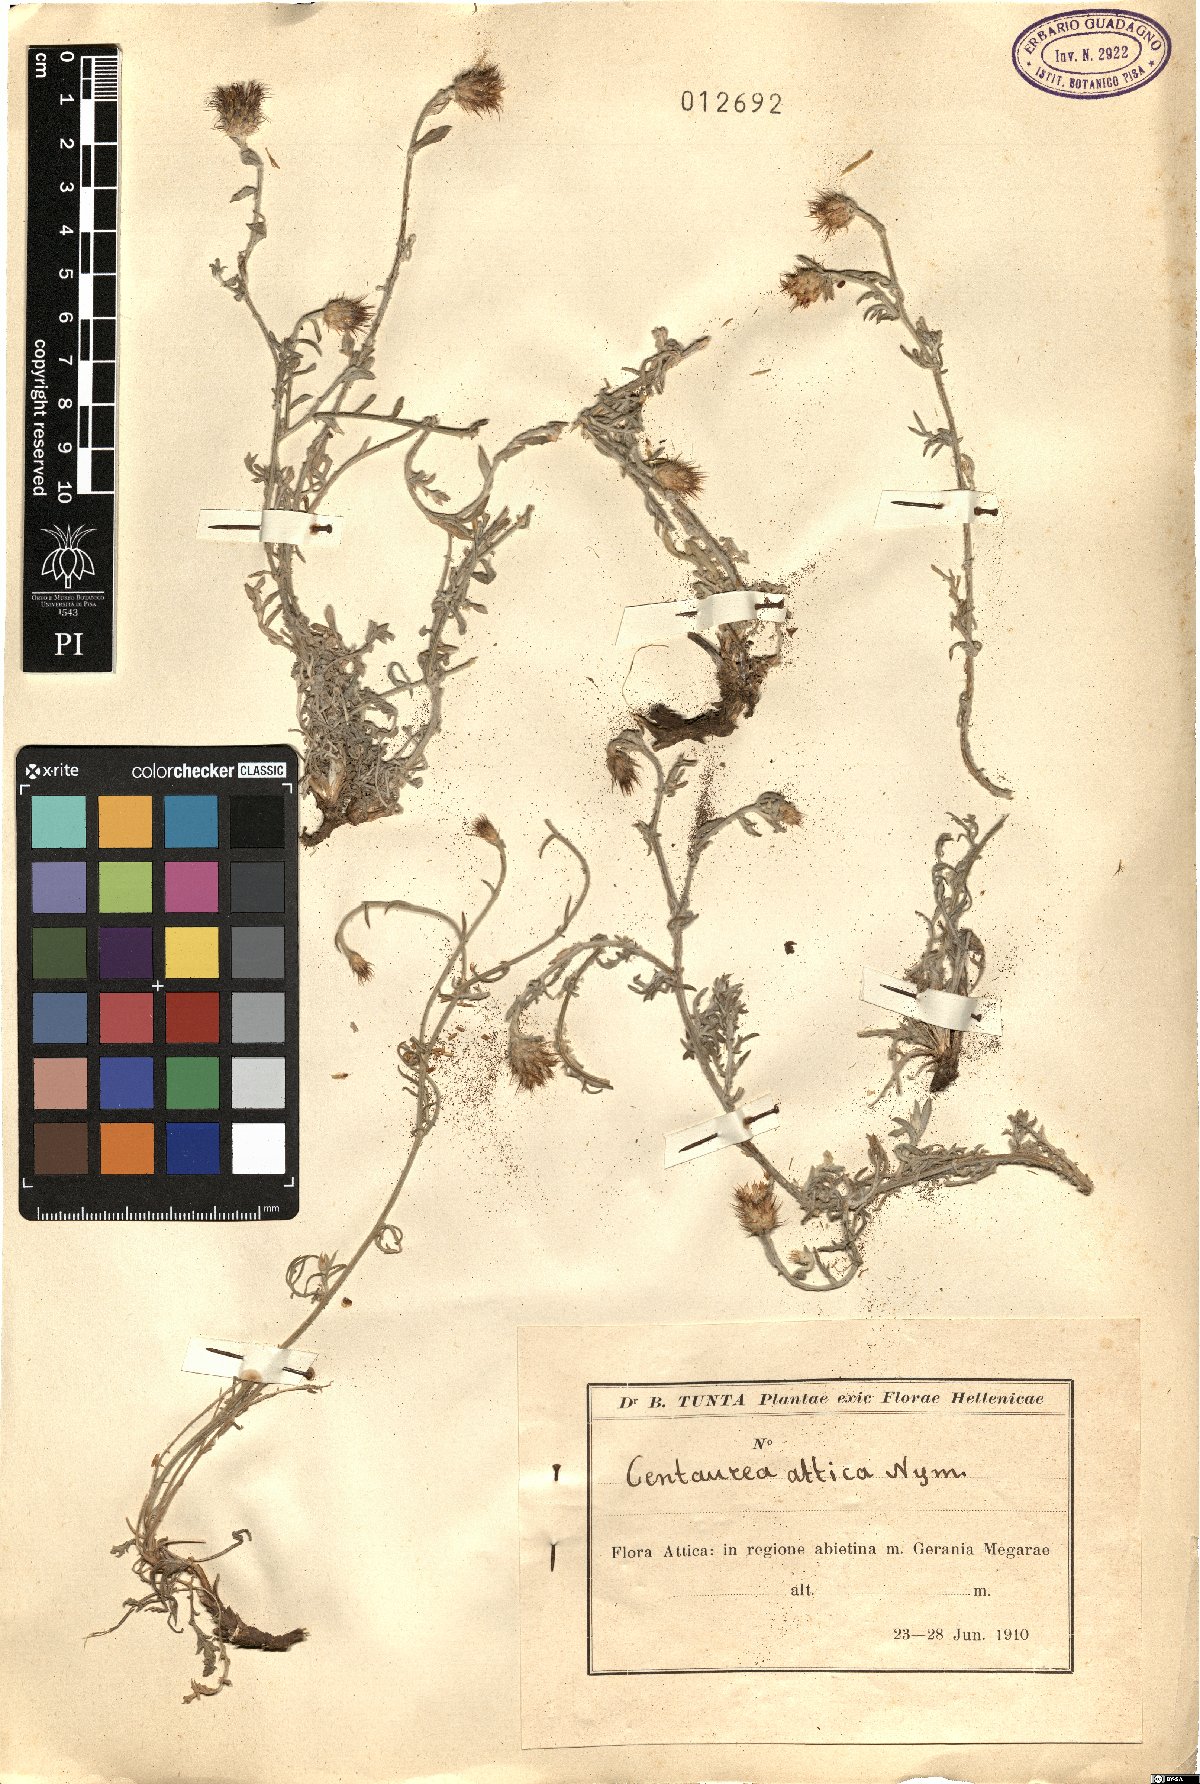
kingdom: Plantae
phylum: Tracheophyta
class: Magnoliopsida
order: Asterales
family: Asteraceae
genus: Centaurea
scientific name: Centaurea attica
